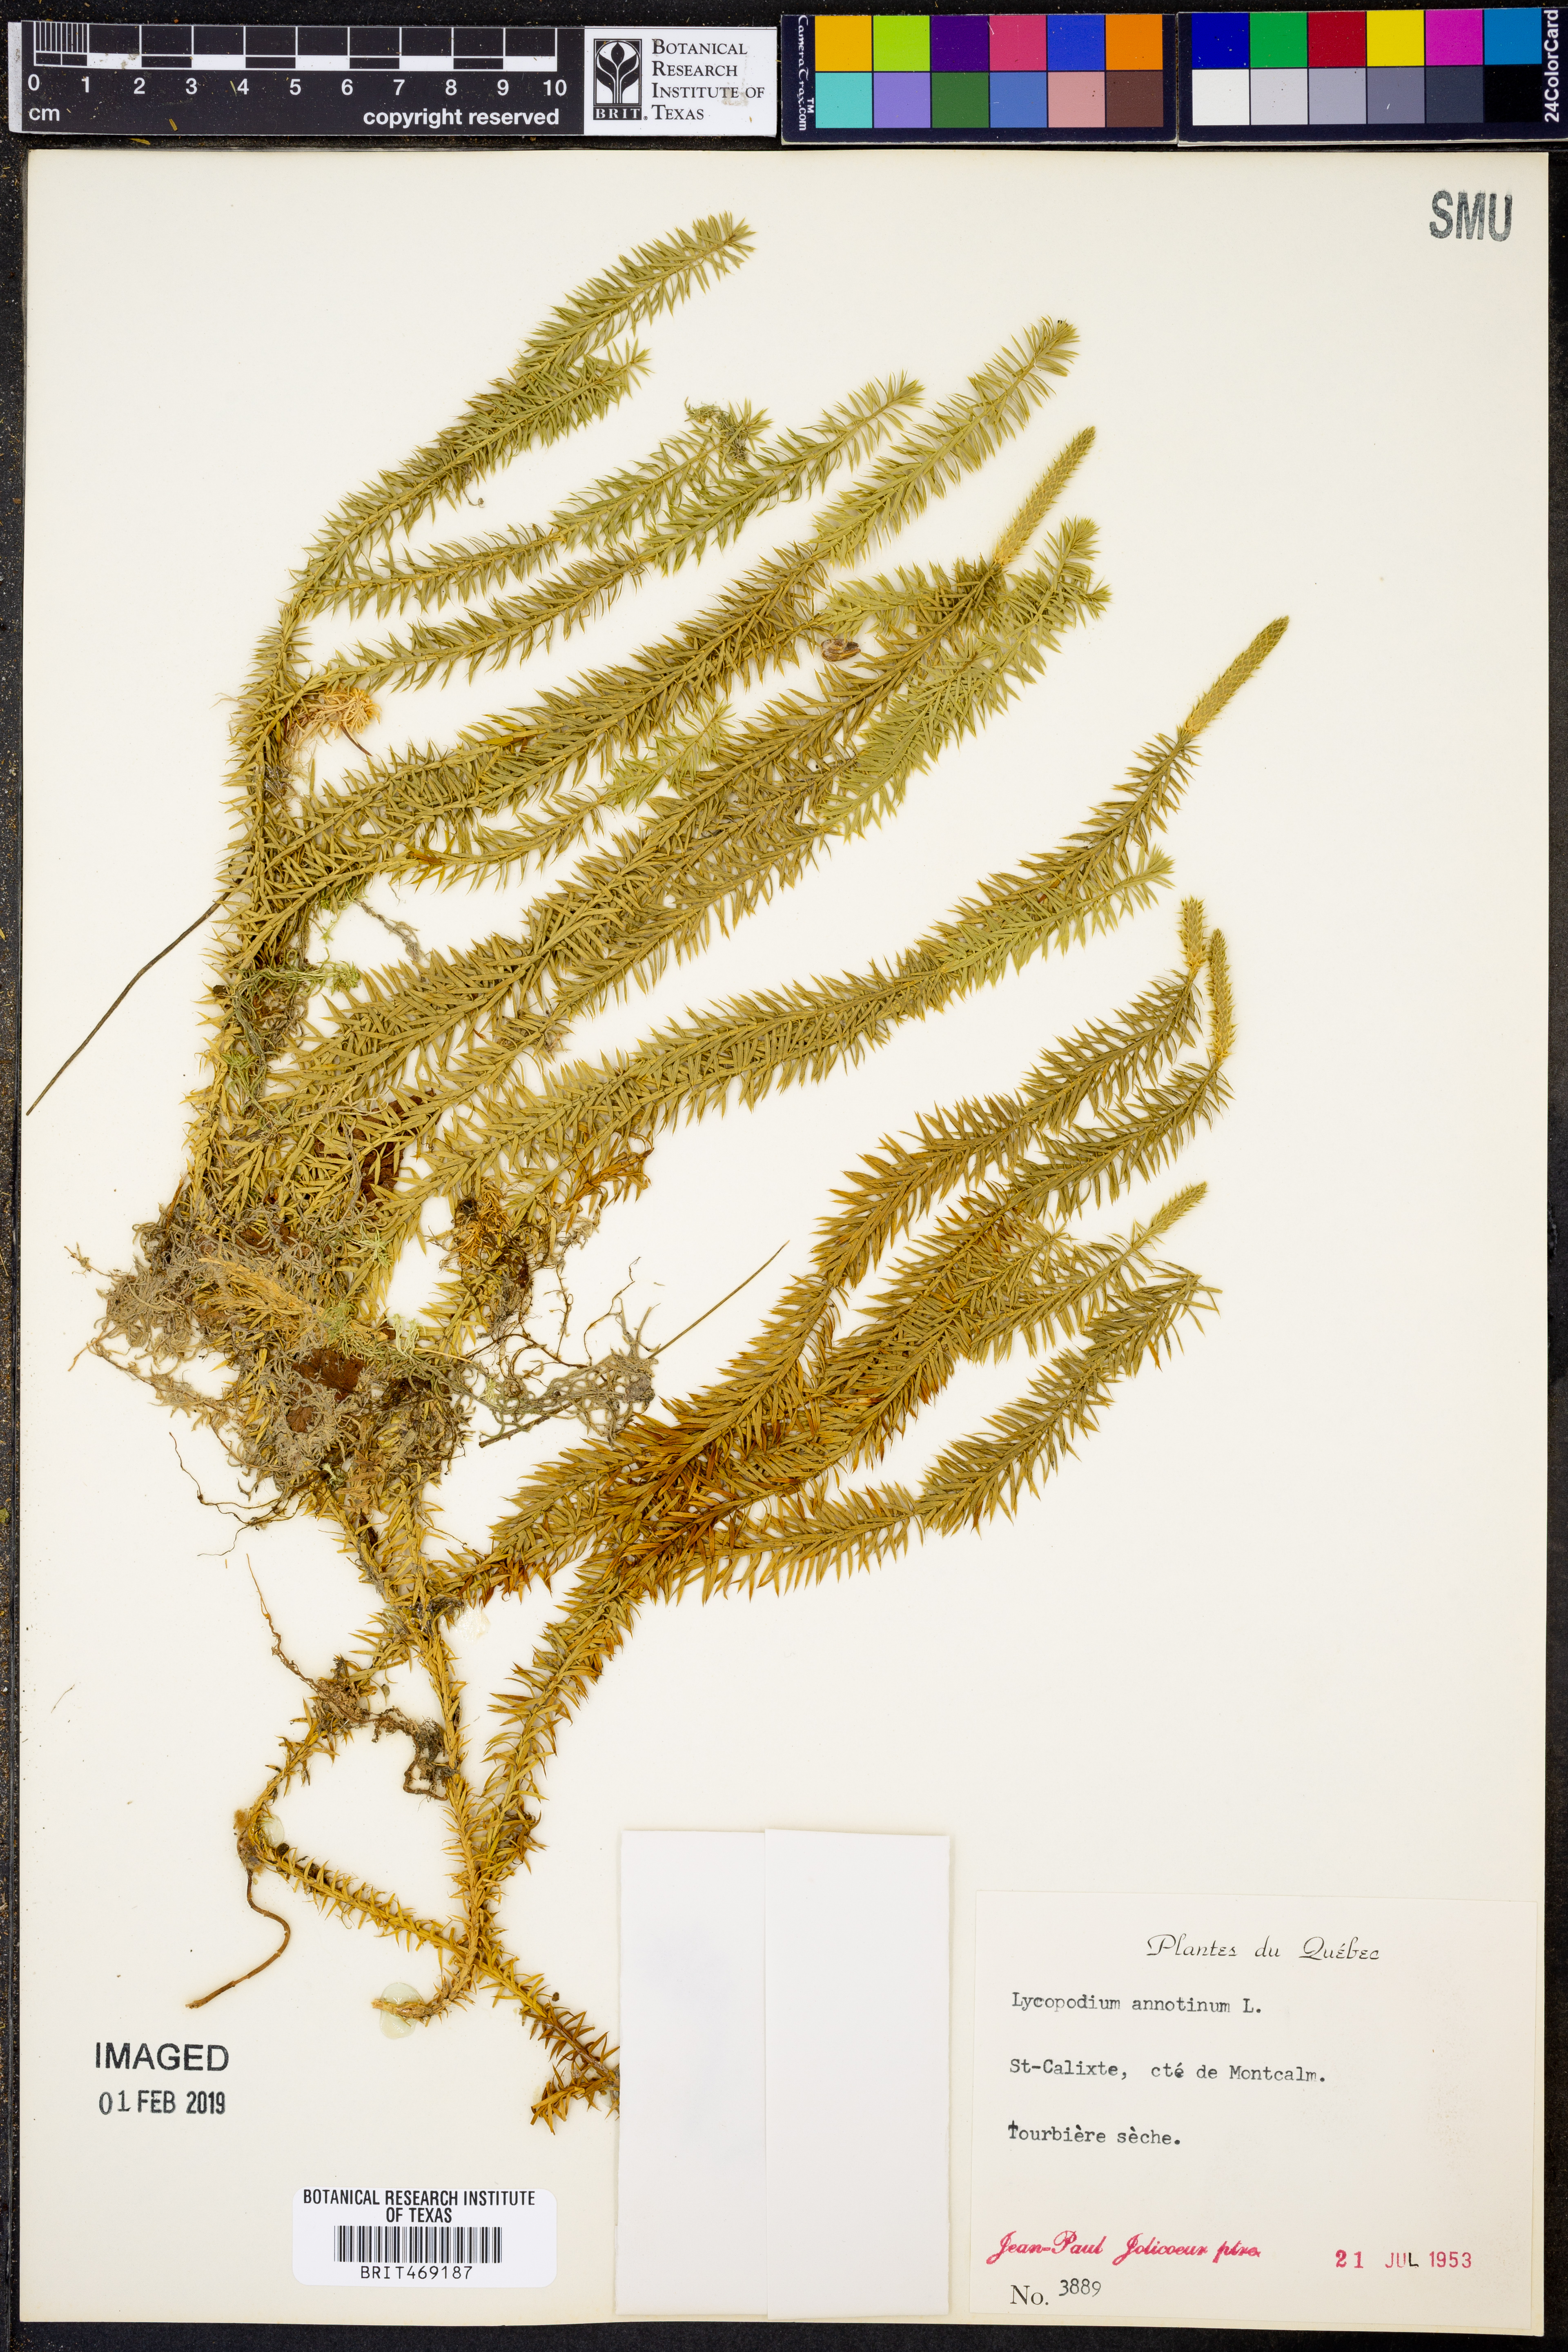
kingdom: Plantae
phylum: Tracheophyta
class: Lycopodiopsida
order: Lycopodiales
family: Lycopodiaceae
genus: Spinulum
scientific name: Spinulum annotinum
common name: Interrupted club-moss
